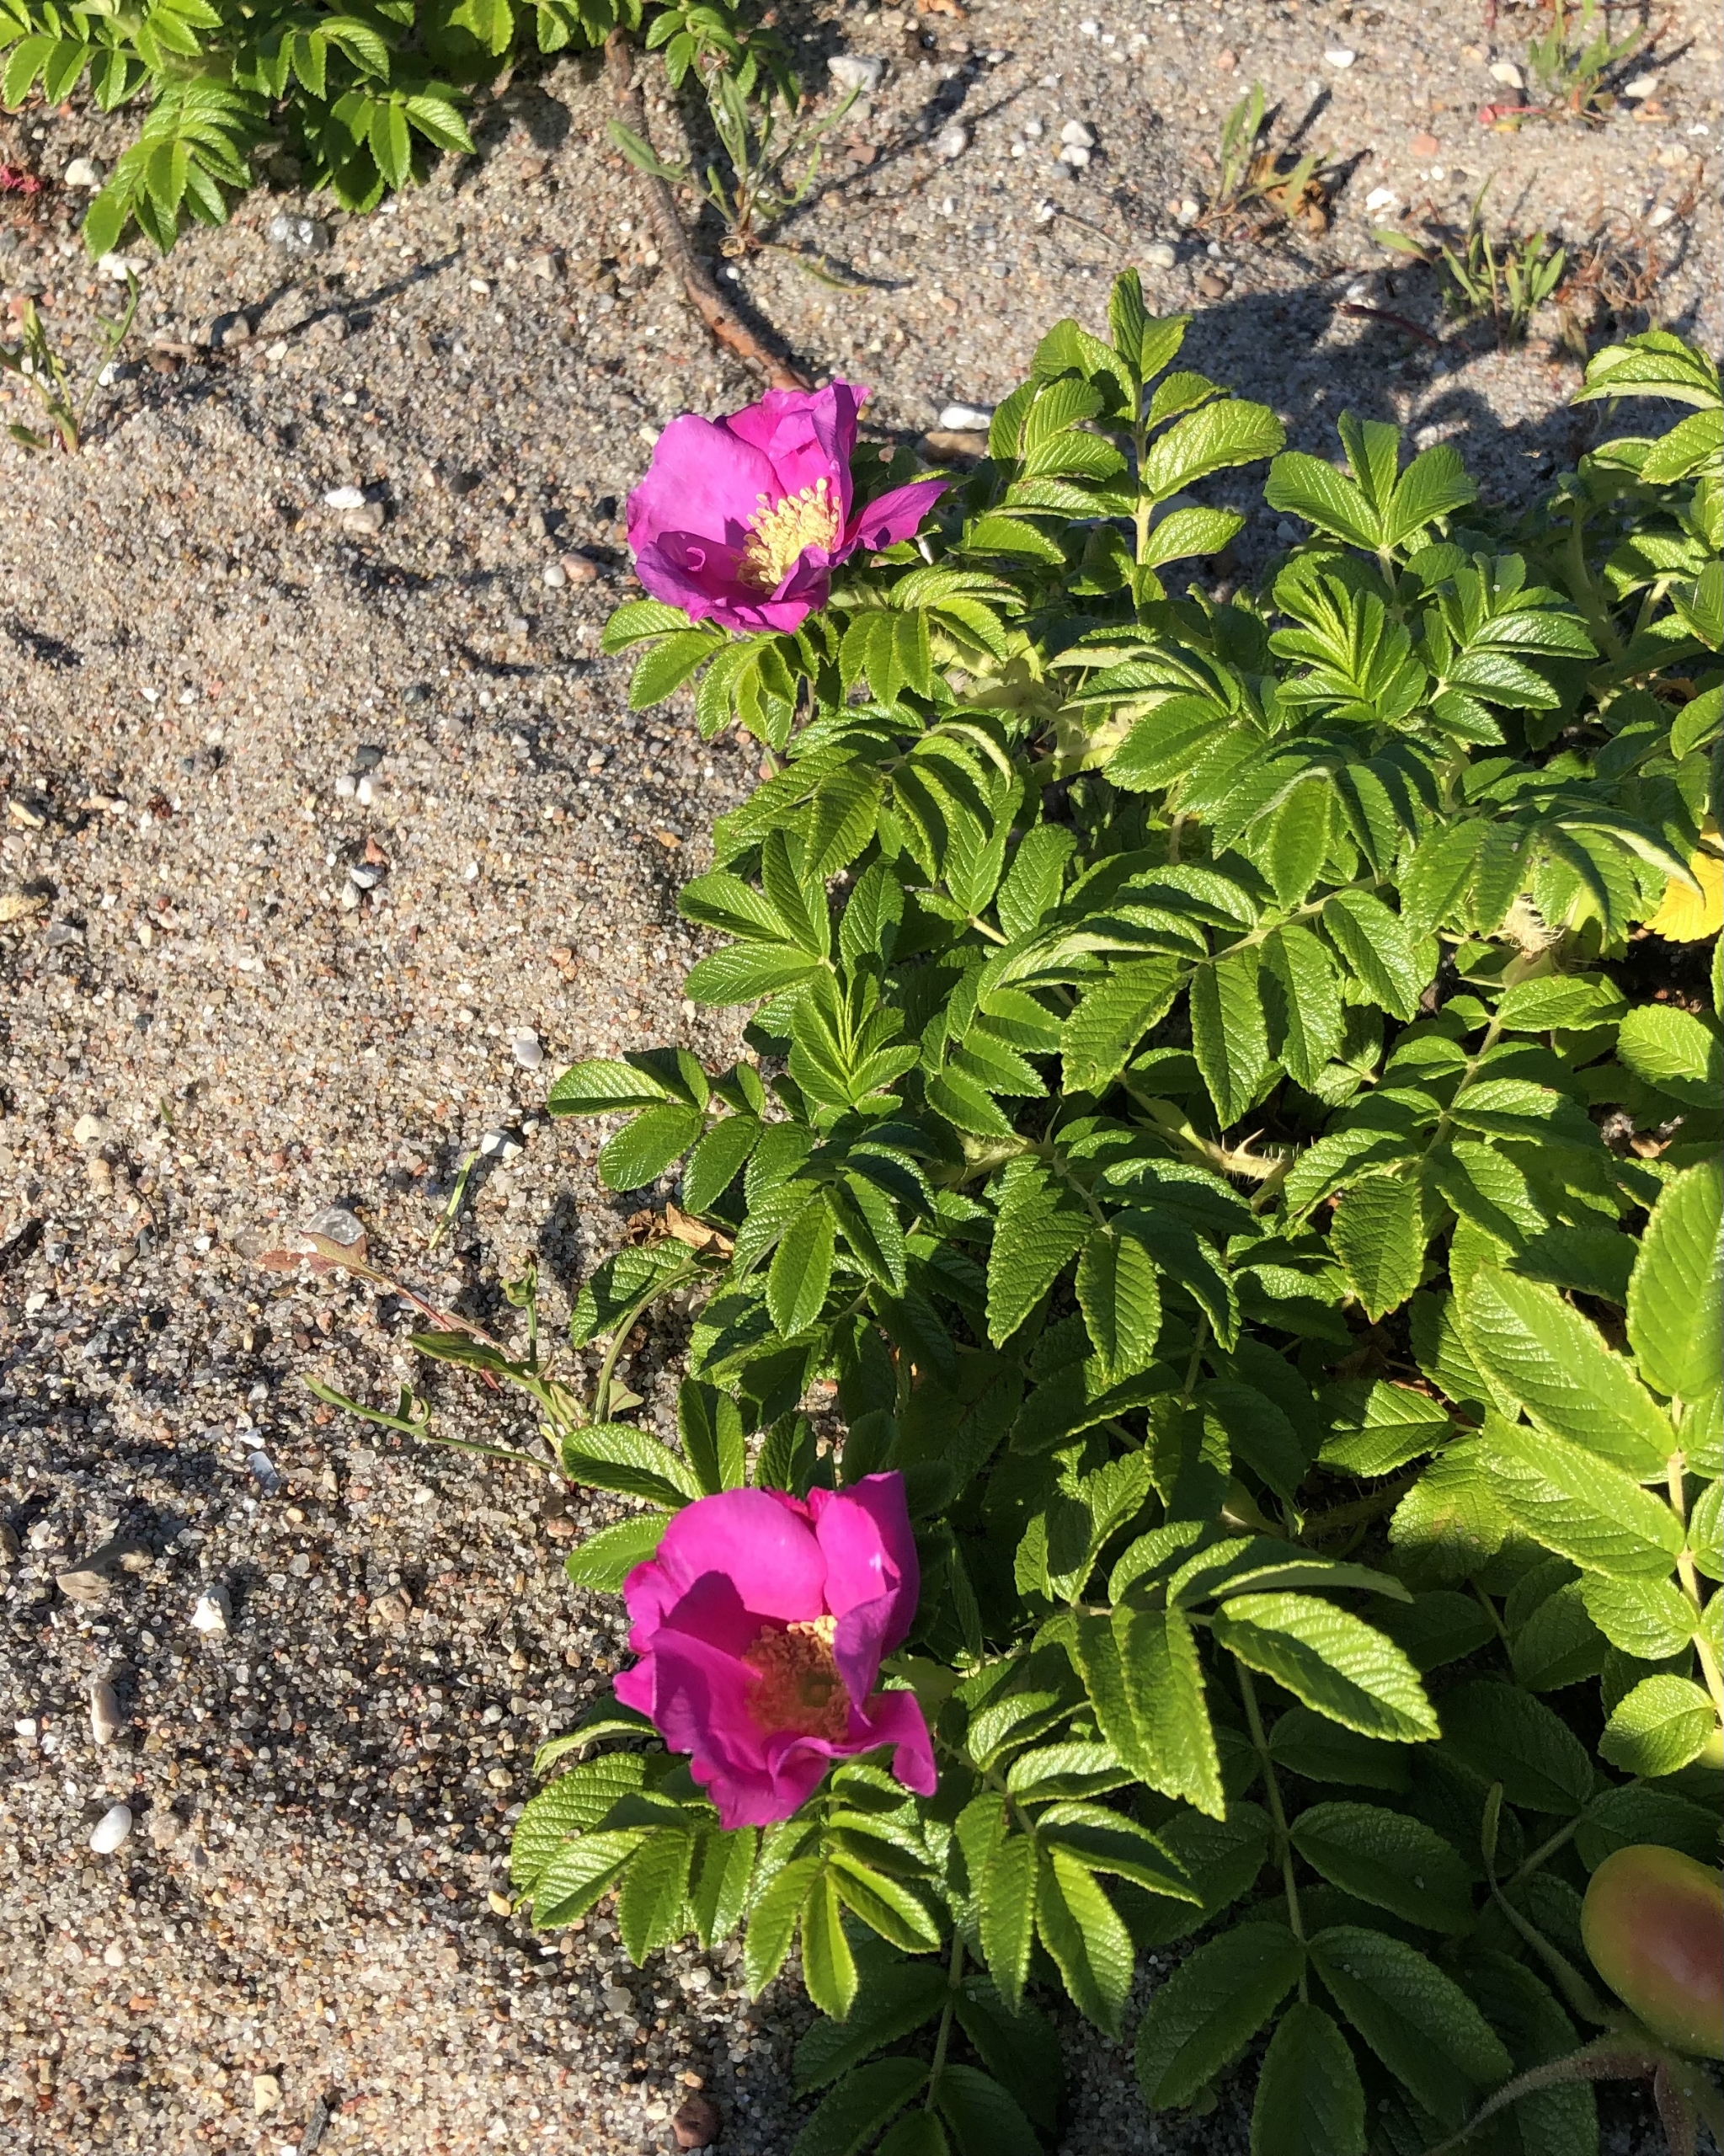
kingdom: Plantae
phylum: Tracheophyta
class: Magnoliopsida
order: Rosales
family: Rosaceae
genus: Rosa
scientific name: Rosa rugosa
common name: Rynket rose
